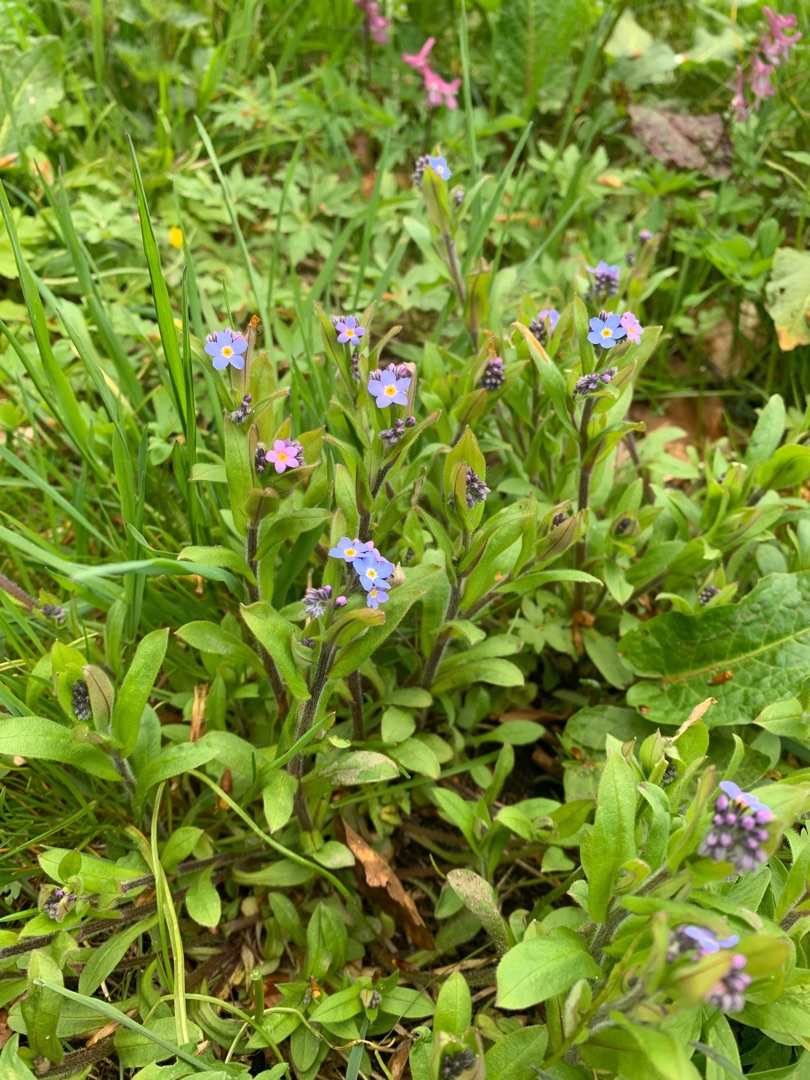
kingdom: Plantae
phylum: Tracheophyta
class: Magnoliopsida
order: Boraginales
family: Boraginaceae
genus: Myosotis
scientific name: Myosotis sylvatica
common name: Skov-forglemmigej
